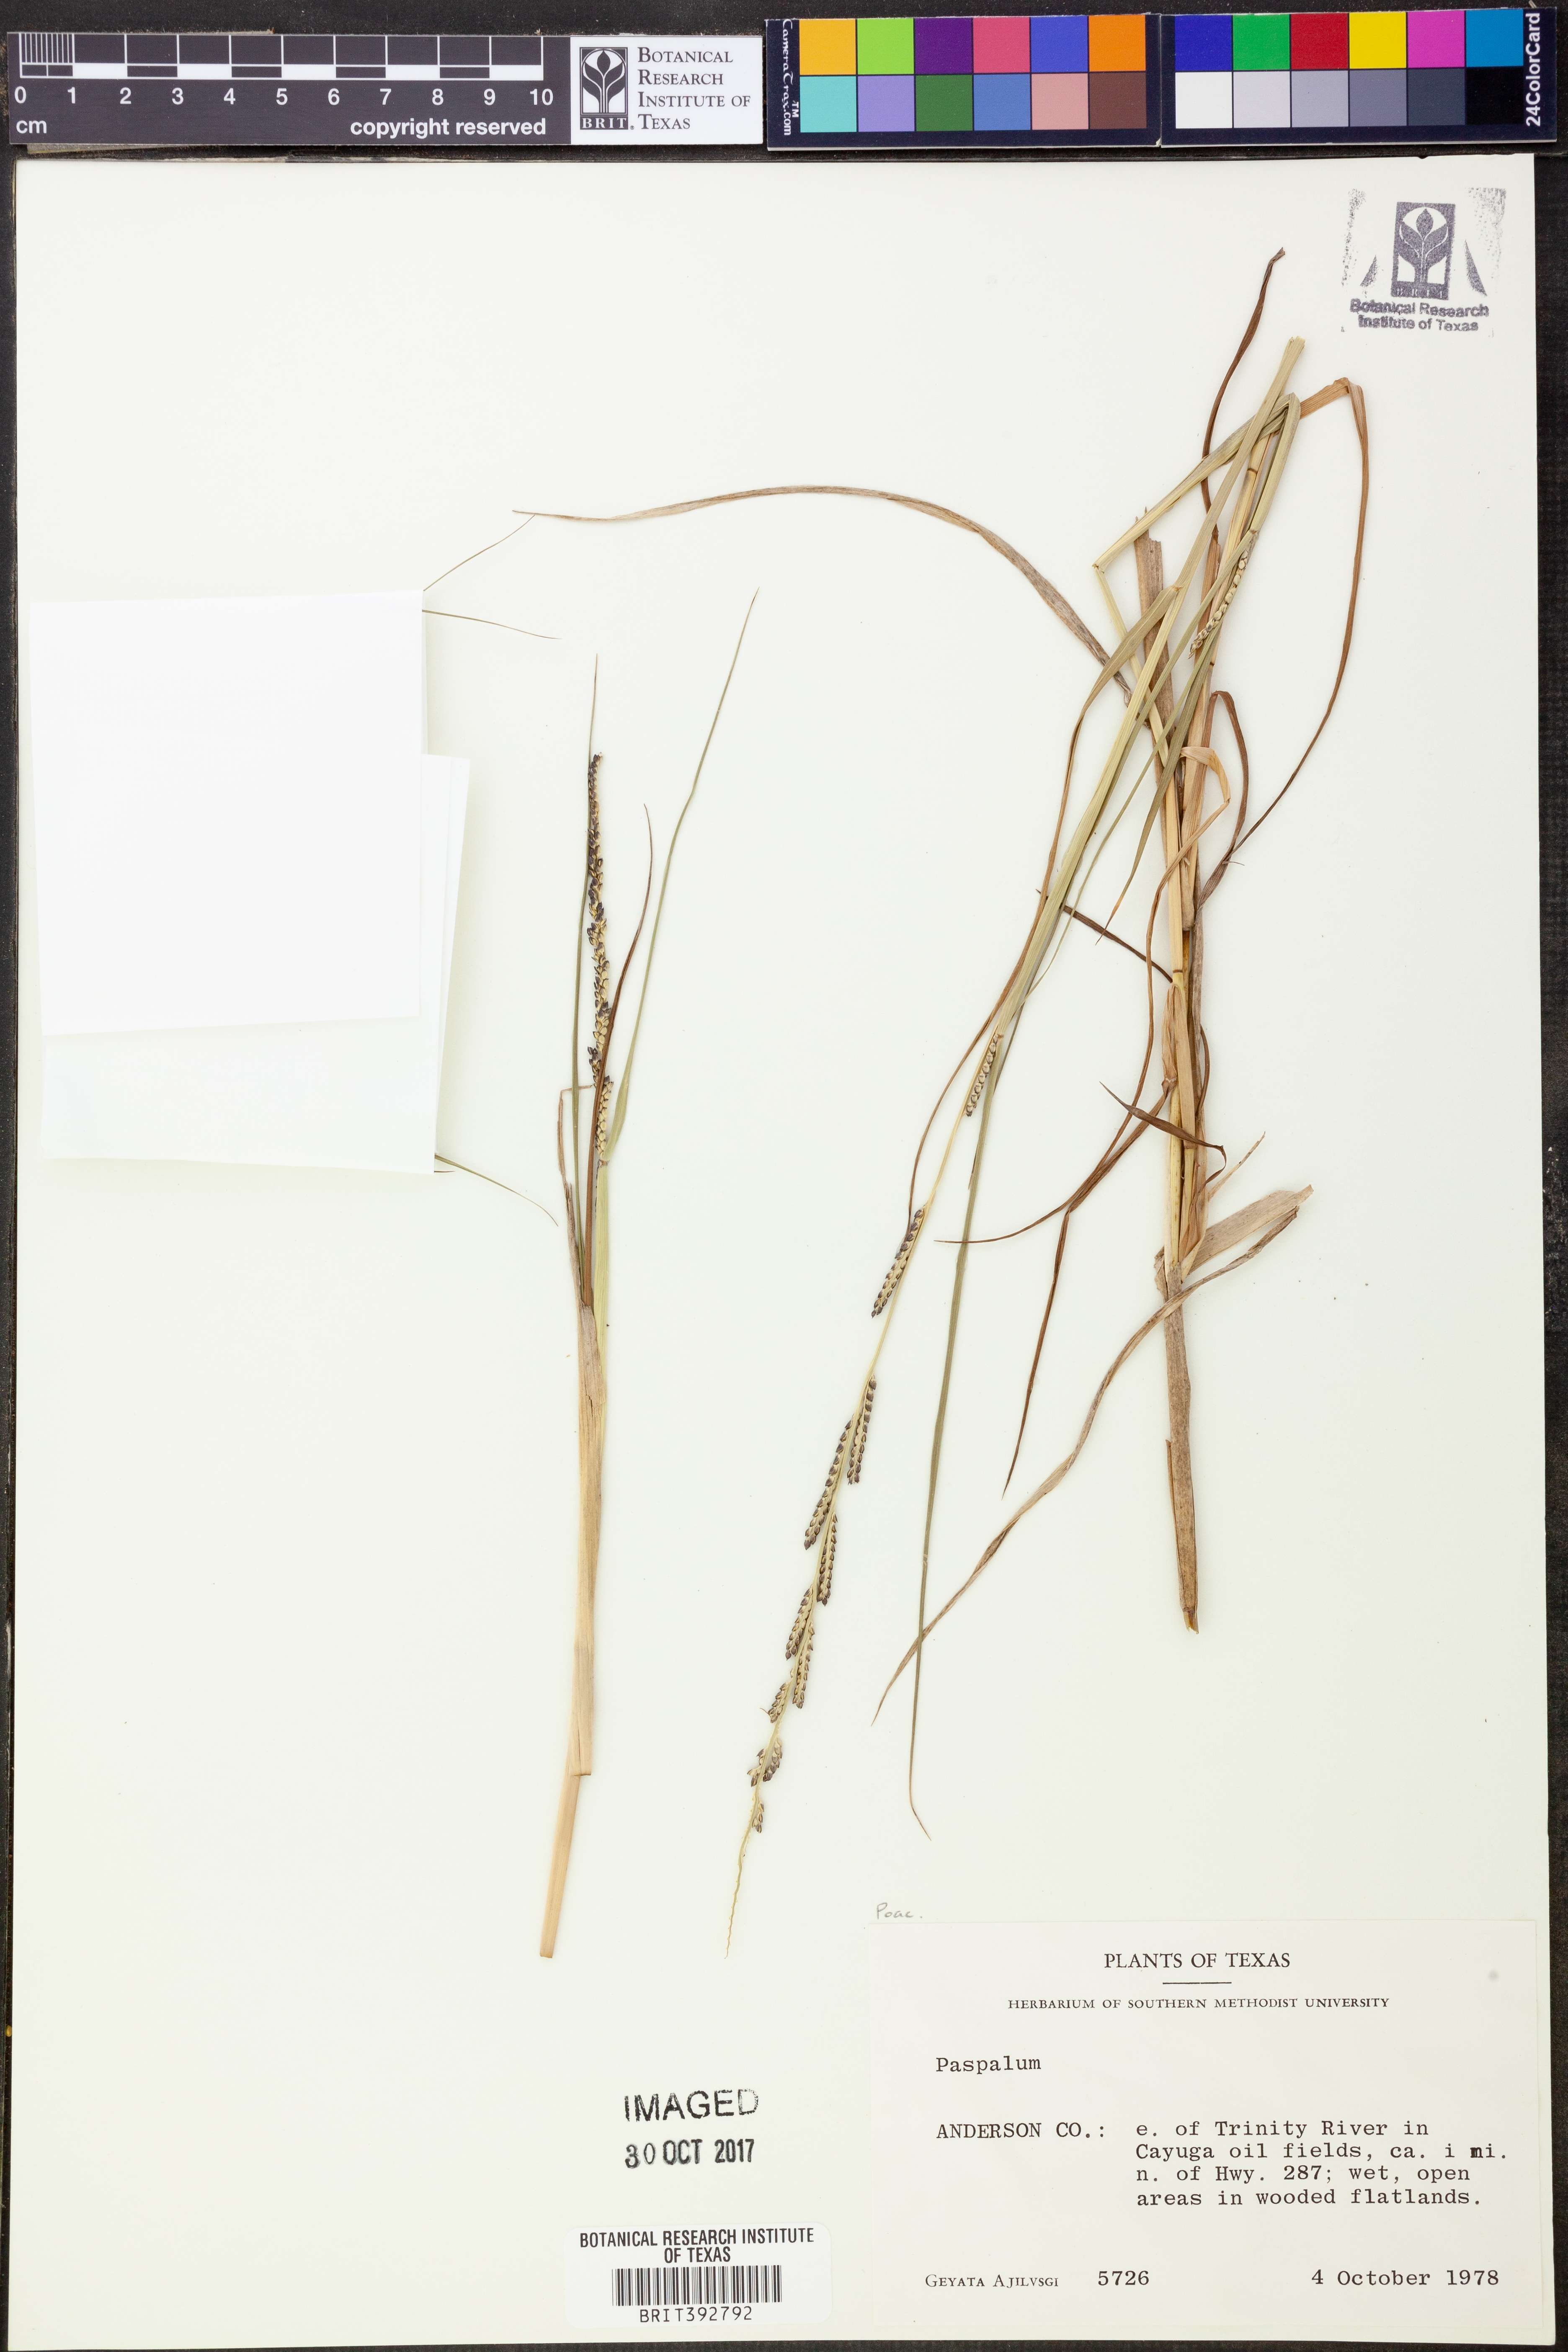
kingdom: Plantae
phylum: Tracheophyta
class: Liliopsida
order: Poales
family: Poaceae
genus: Paspalum
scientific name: Paspalum
